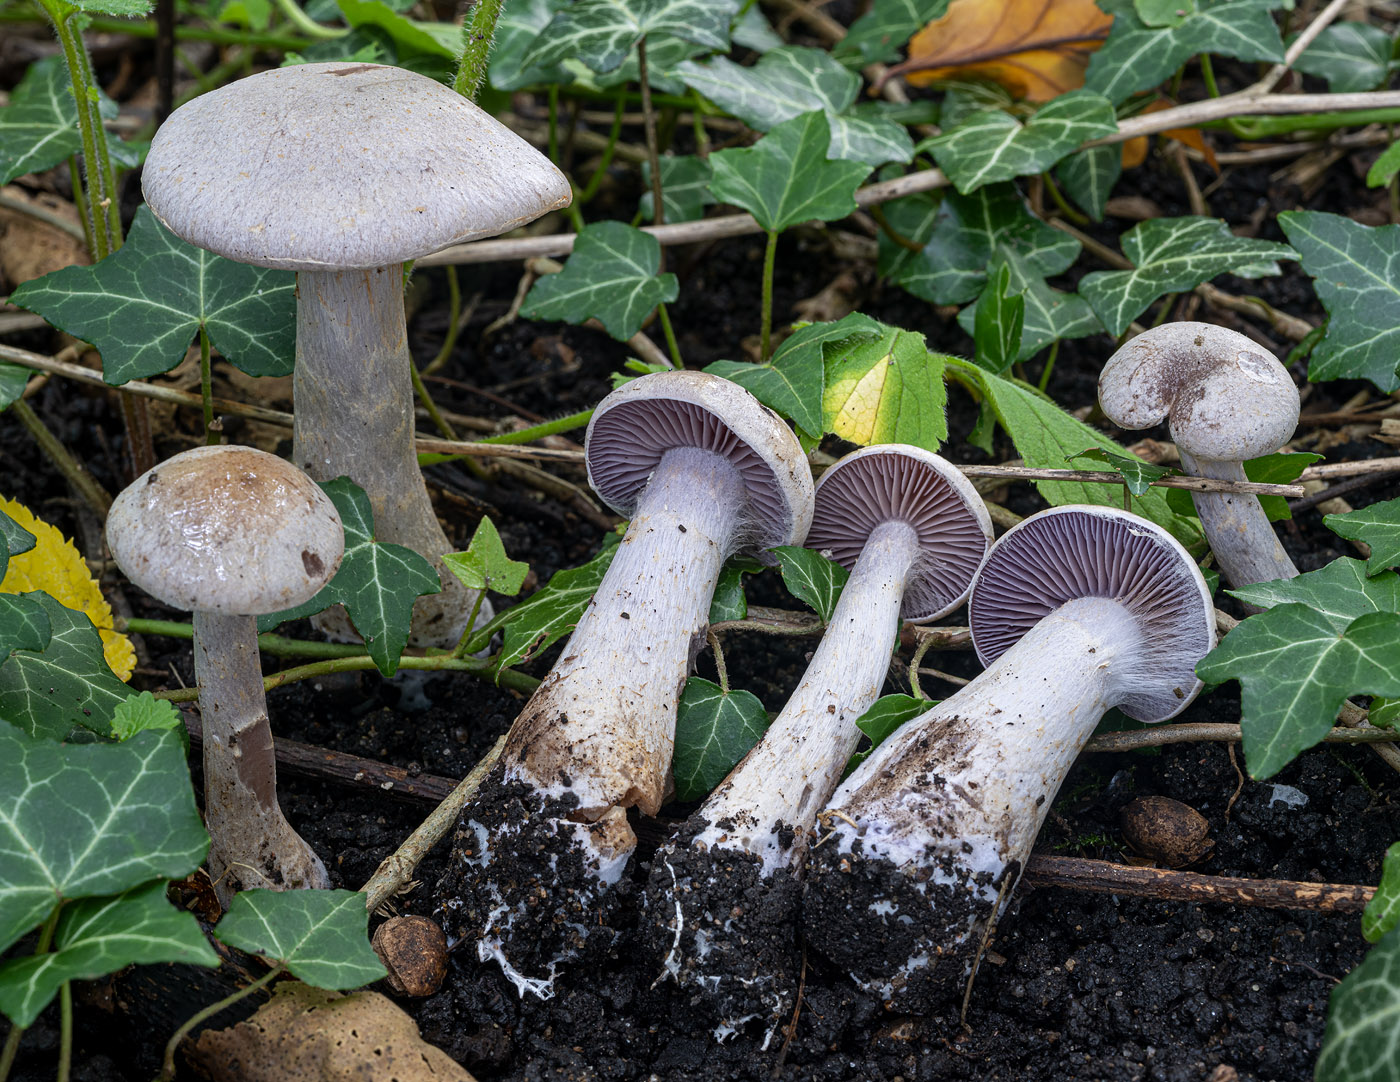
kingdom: Fungi
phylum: Basidiomycota
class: Agaricomycetes
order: Agaricales
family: Cortinariaceae
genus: Cortinarius
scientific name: Cortinarius pelerinii
